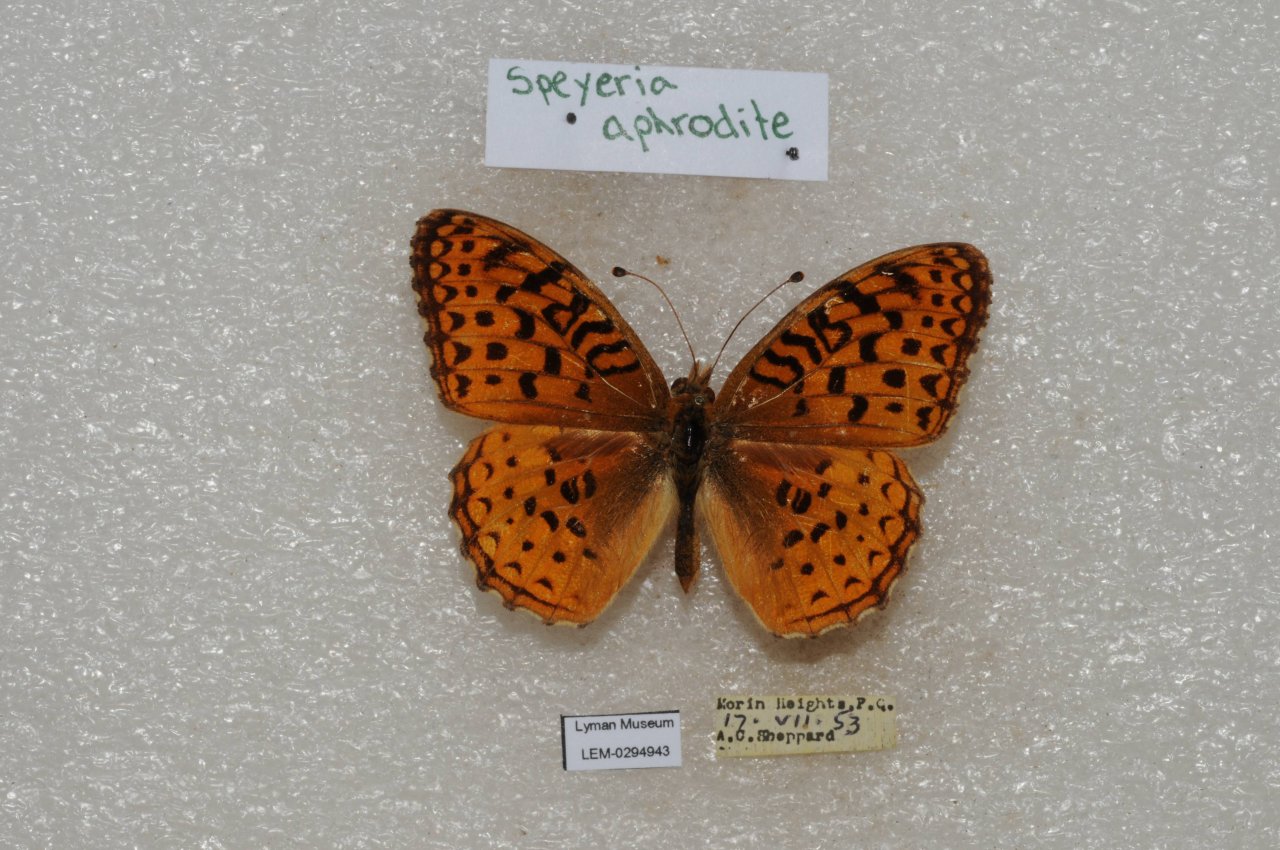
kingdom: Animalia
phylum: Arthropoda
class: Insecta
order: Lepidoptera
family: Nymphalidae
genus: Speyeria
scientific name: Speyeria aphrodite
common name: Aphrodite Fritillary
